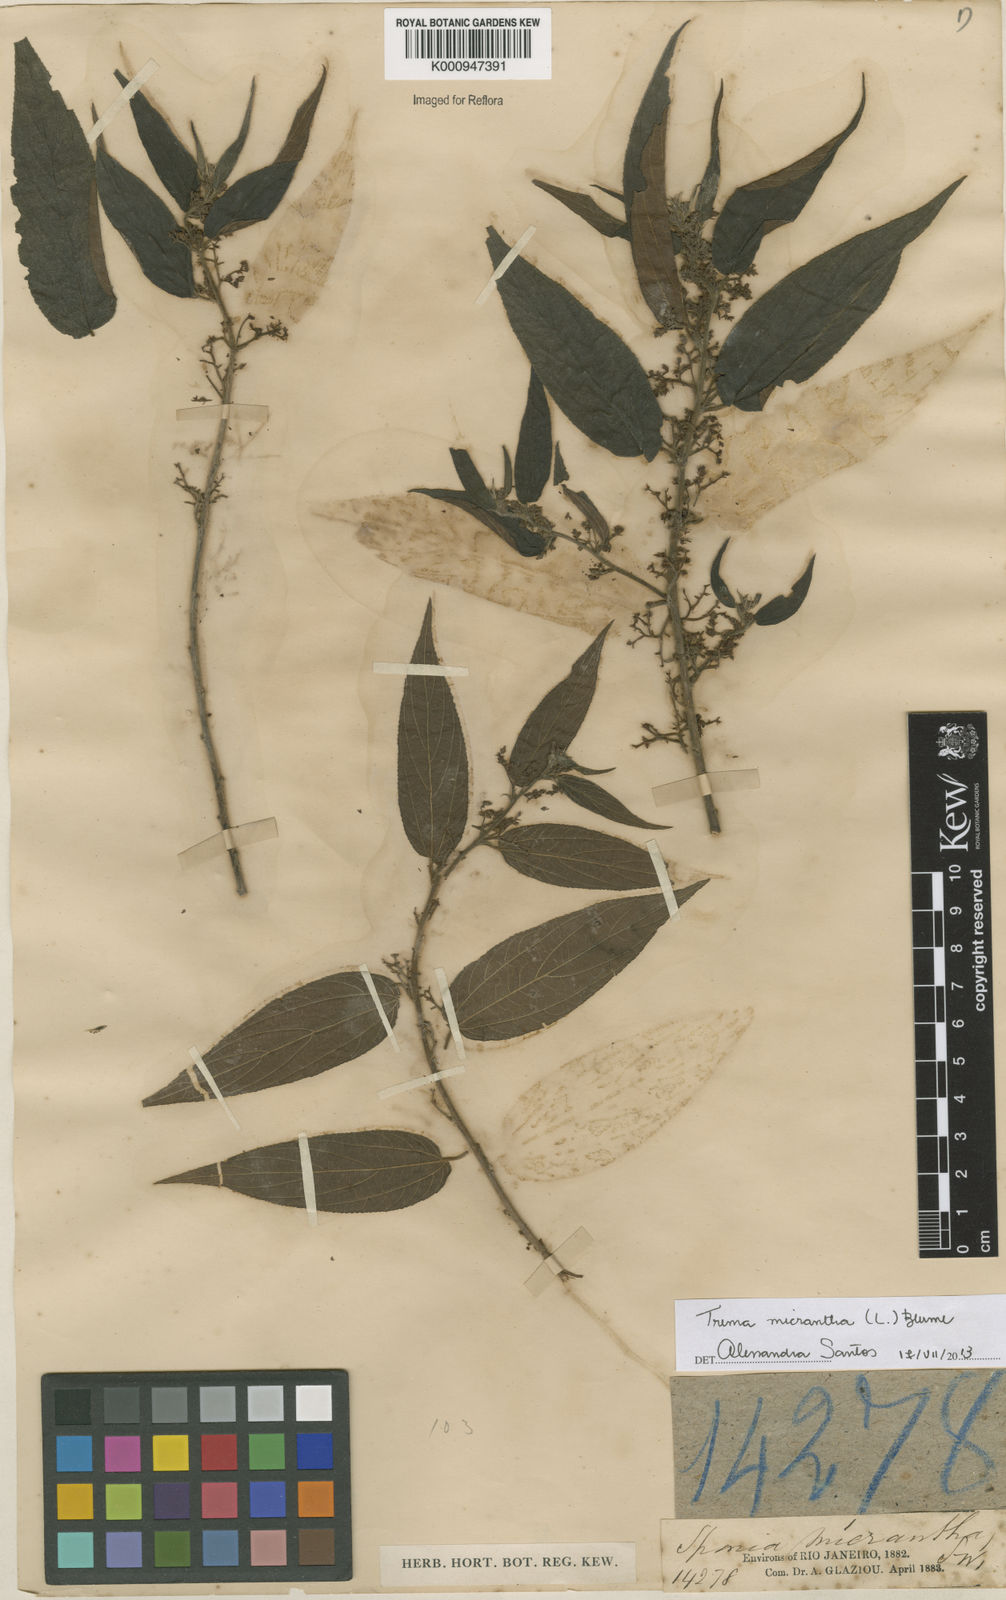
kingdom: Plantae
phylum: Tracheophyta
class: Magnoliopsida
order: Rosales
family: Cannabaceae
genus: Trema
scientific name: Trema micranthum
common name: Jamaican nettletree
